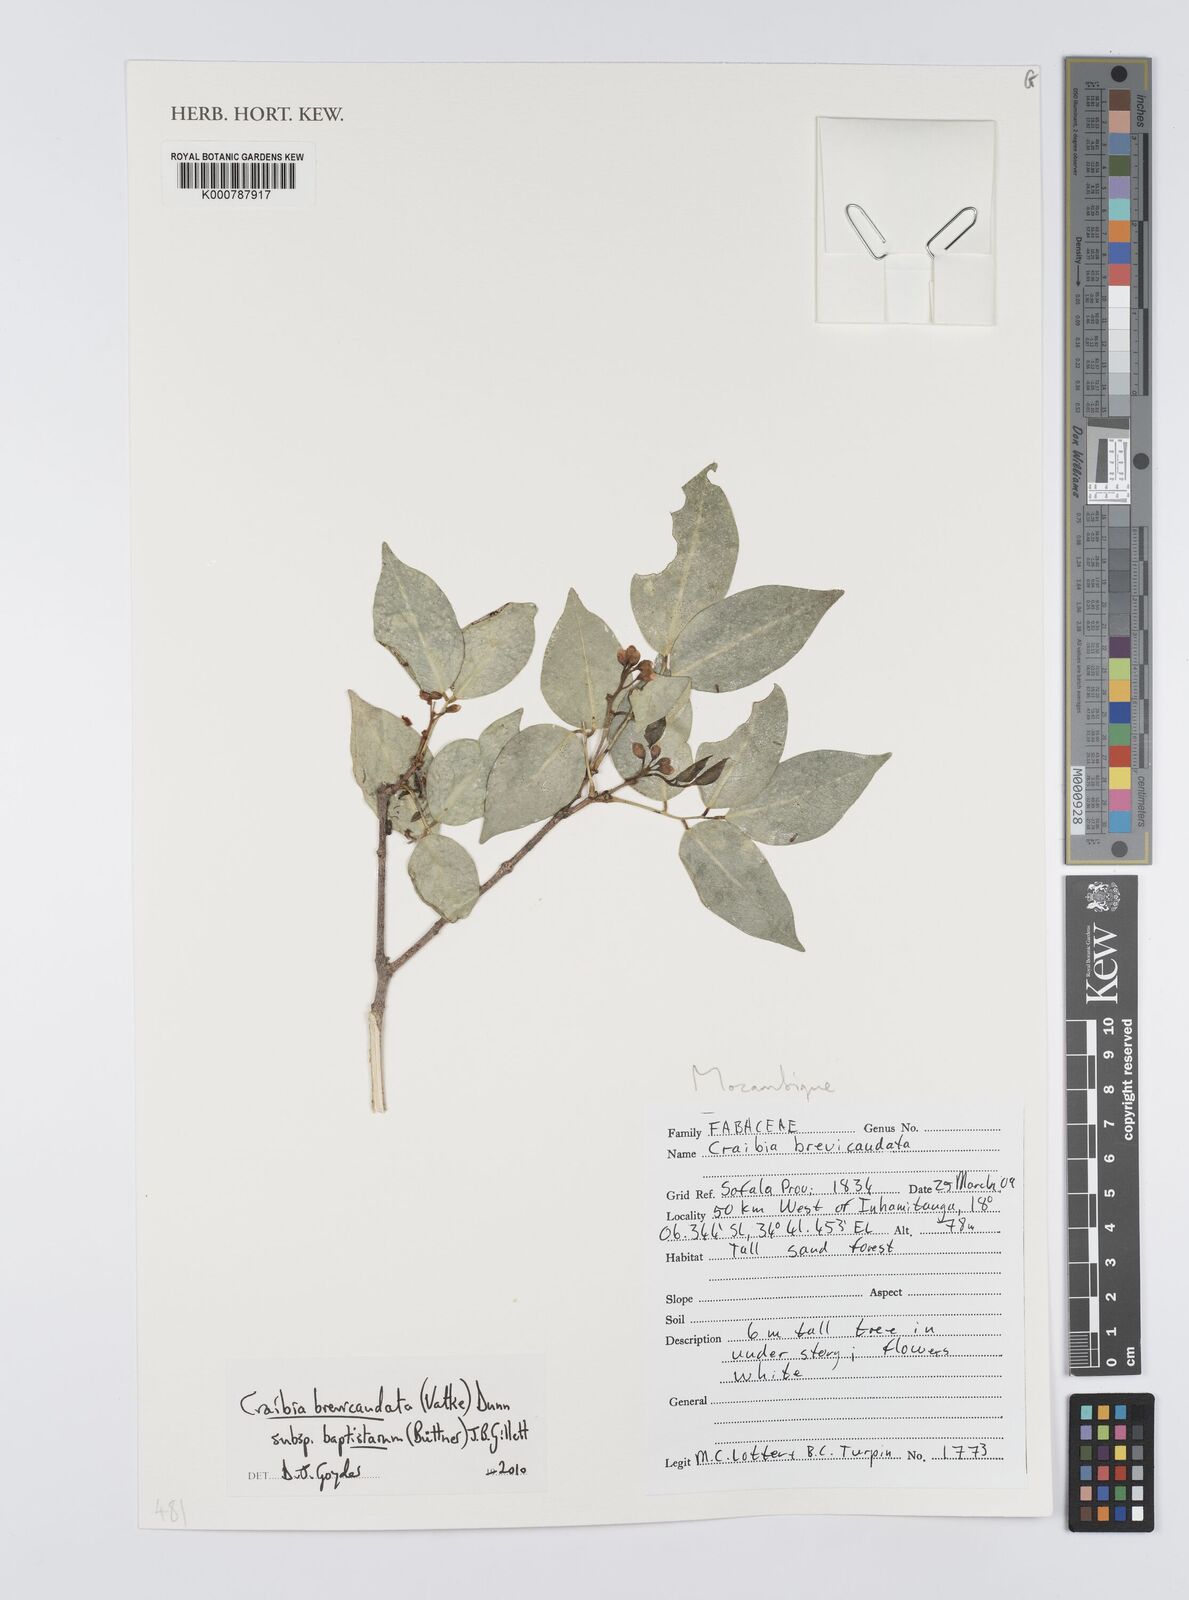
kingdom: Plantae
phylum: Tracheophyta
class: Magnoliopsida
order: Fabales
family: Fabaceae
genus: Craibia
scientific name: Craibia brevicaudata
